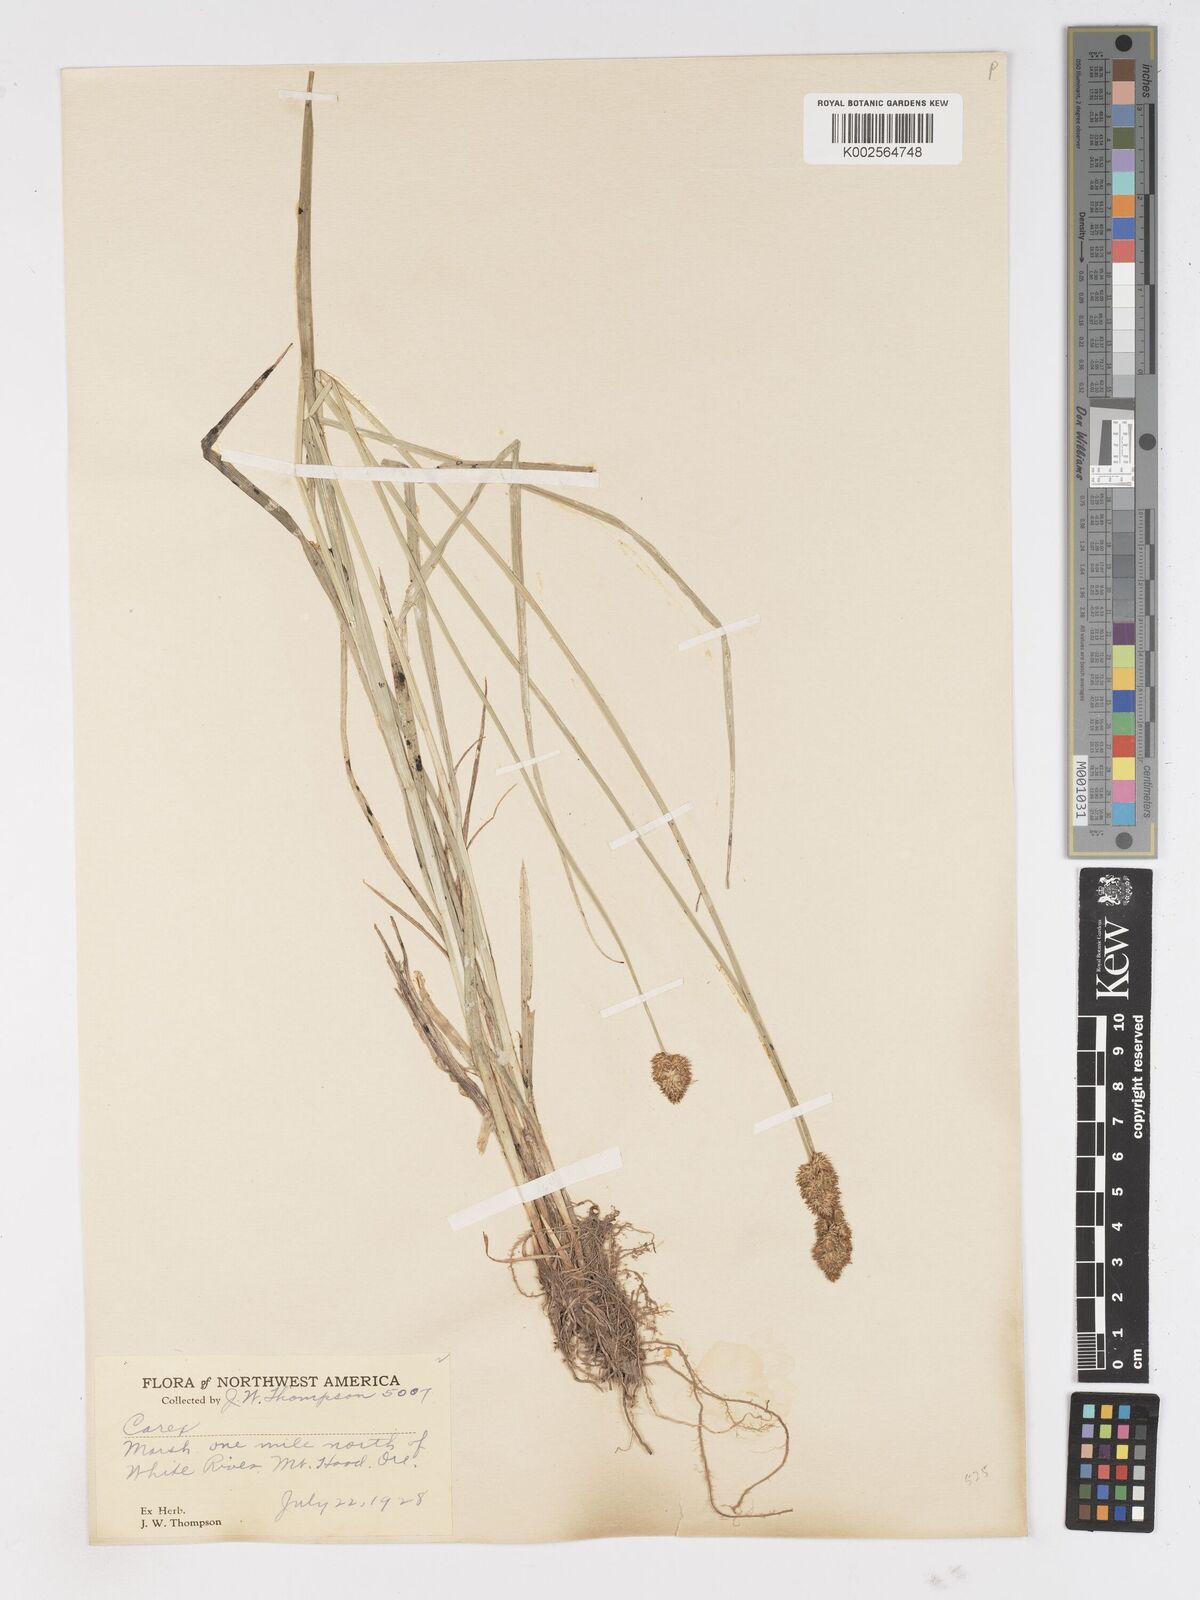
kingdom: Plantae
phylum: Tracheophyta
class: Liliopsida
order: Poales
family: Cyperaceae
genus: Carex
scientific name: Carex
